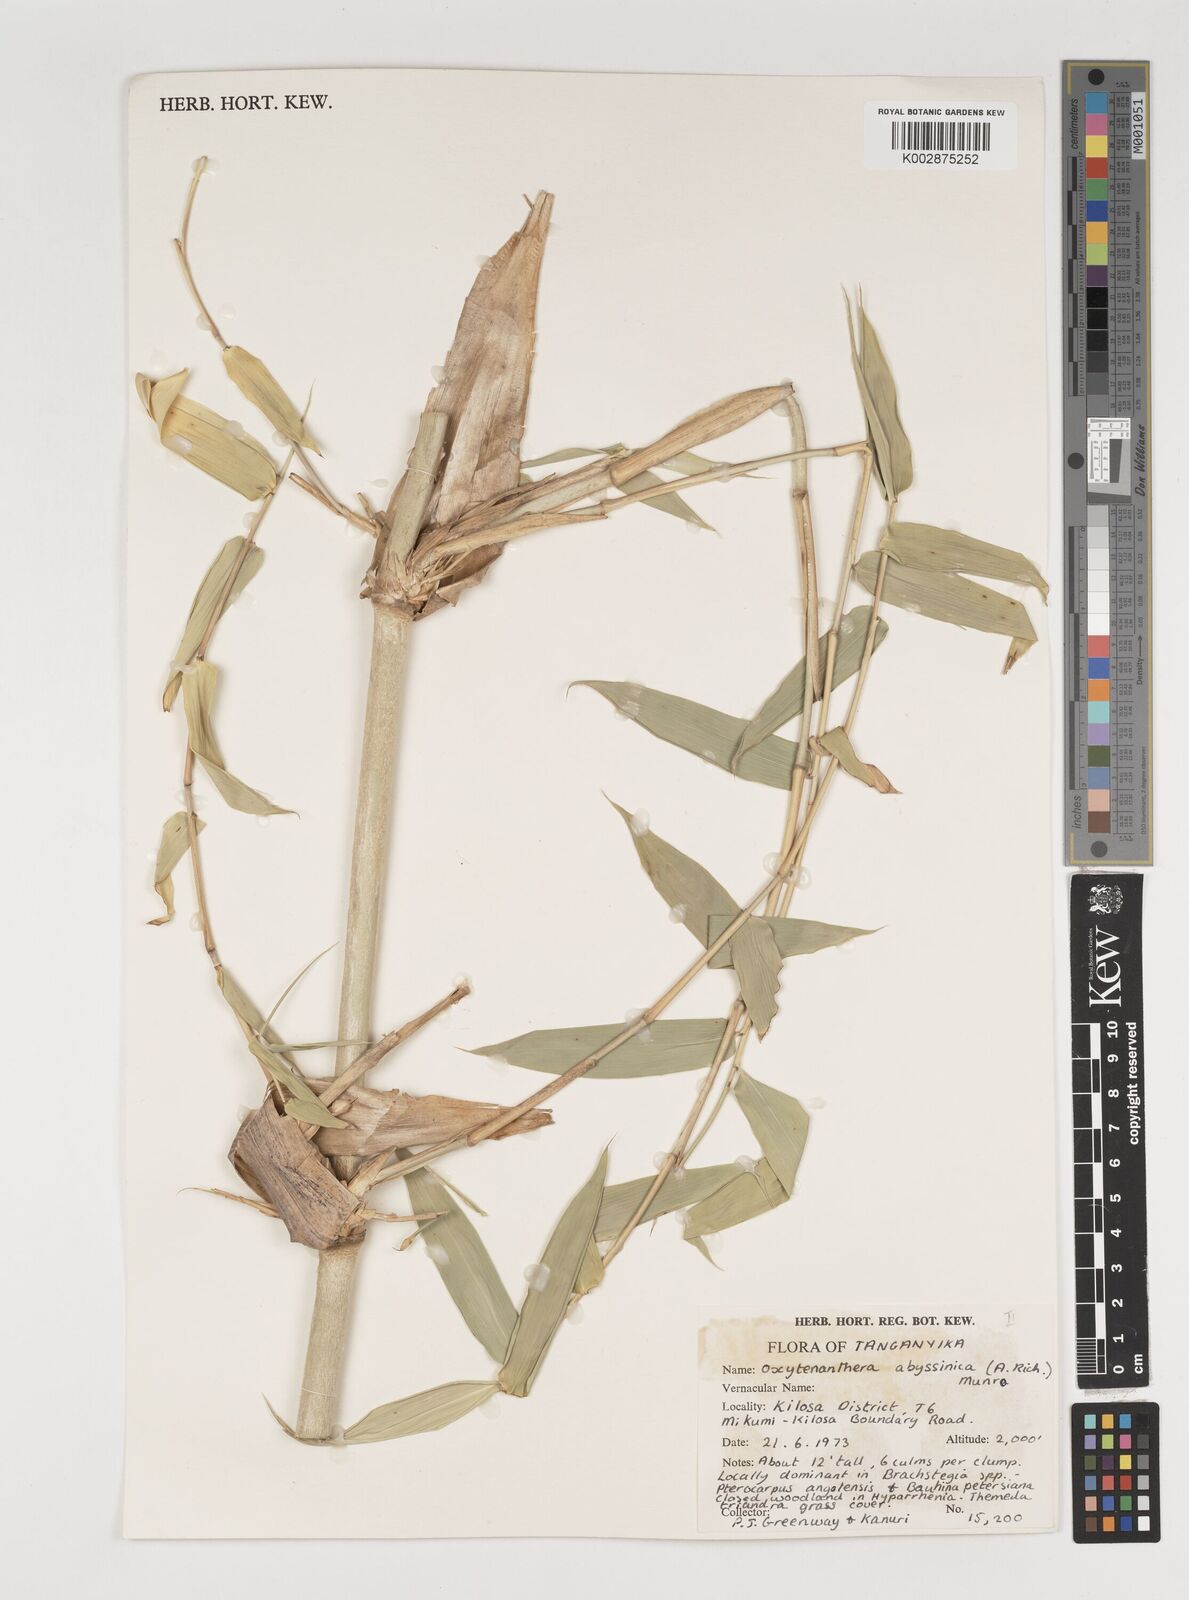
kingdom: Plantae
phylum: Tracheophyta
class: Liliopsida
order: Poales
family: Poaceae
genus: Oxytenanthera
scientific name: Oxytenanthera
